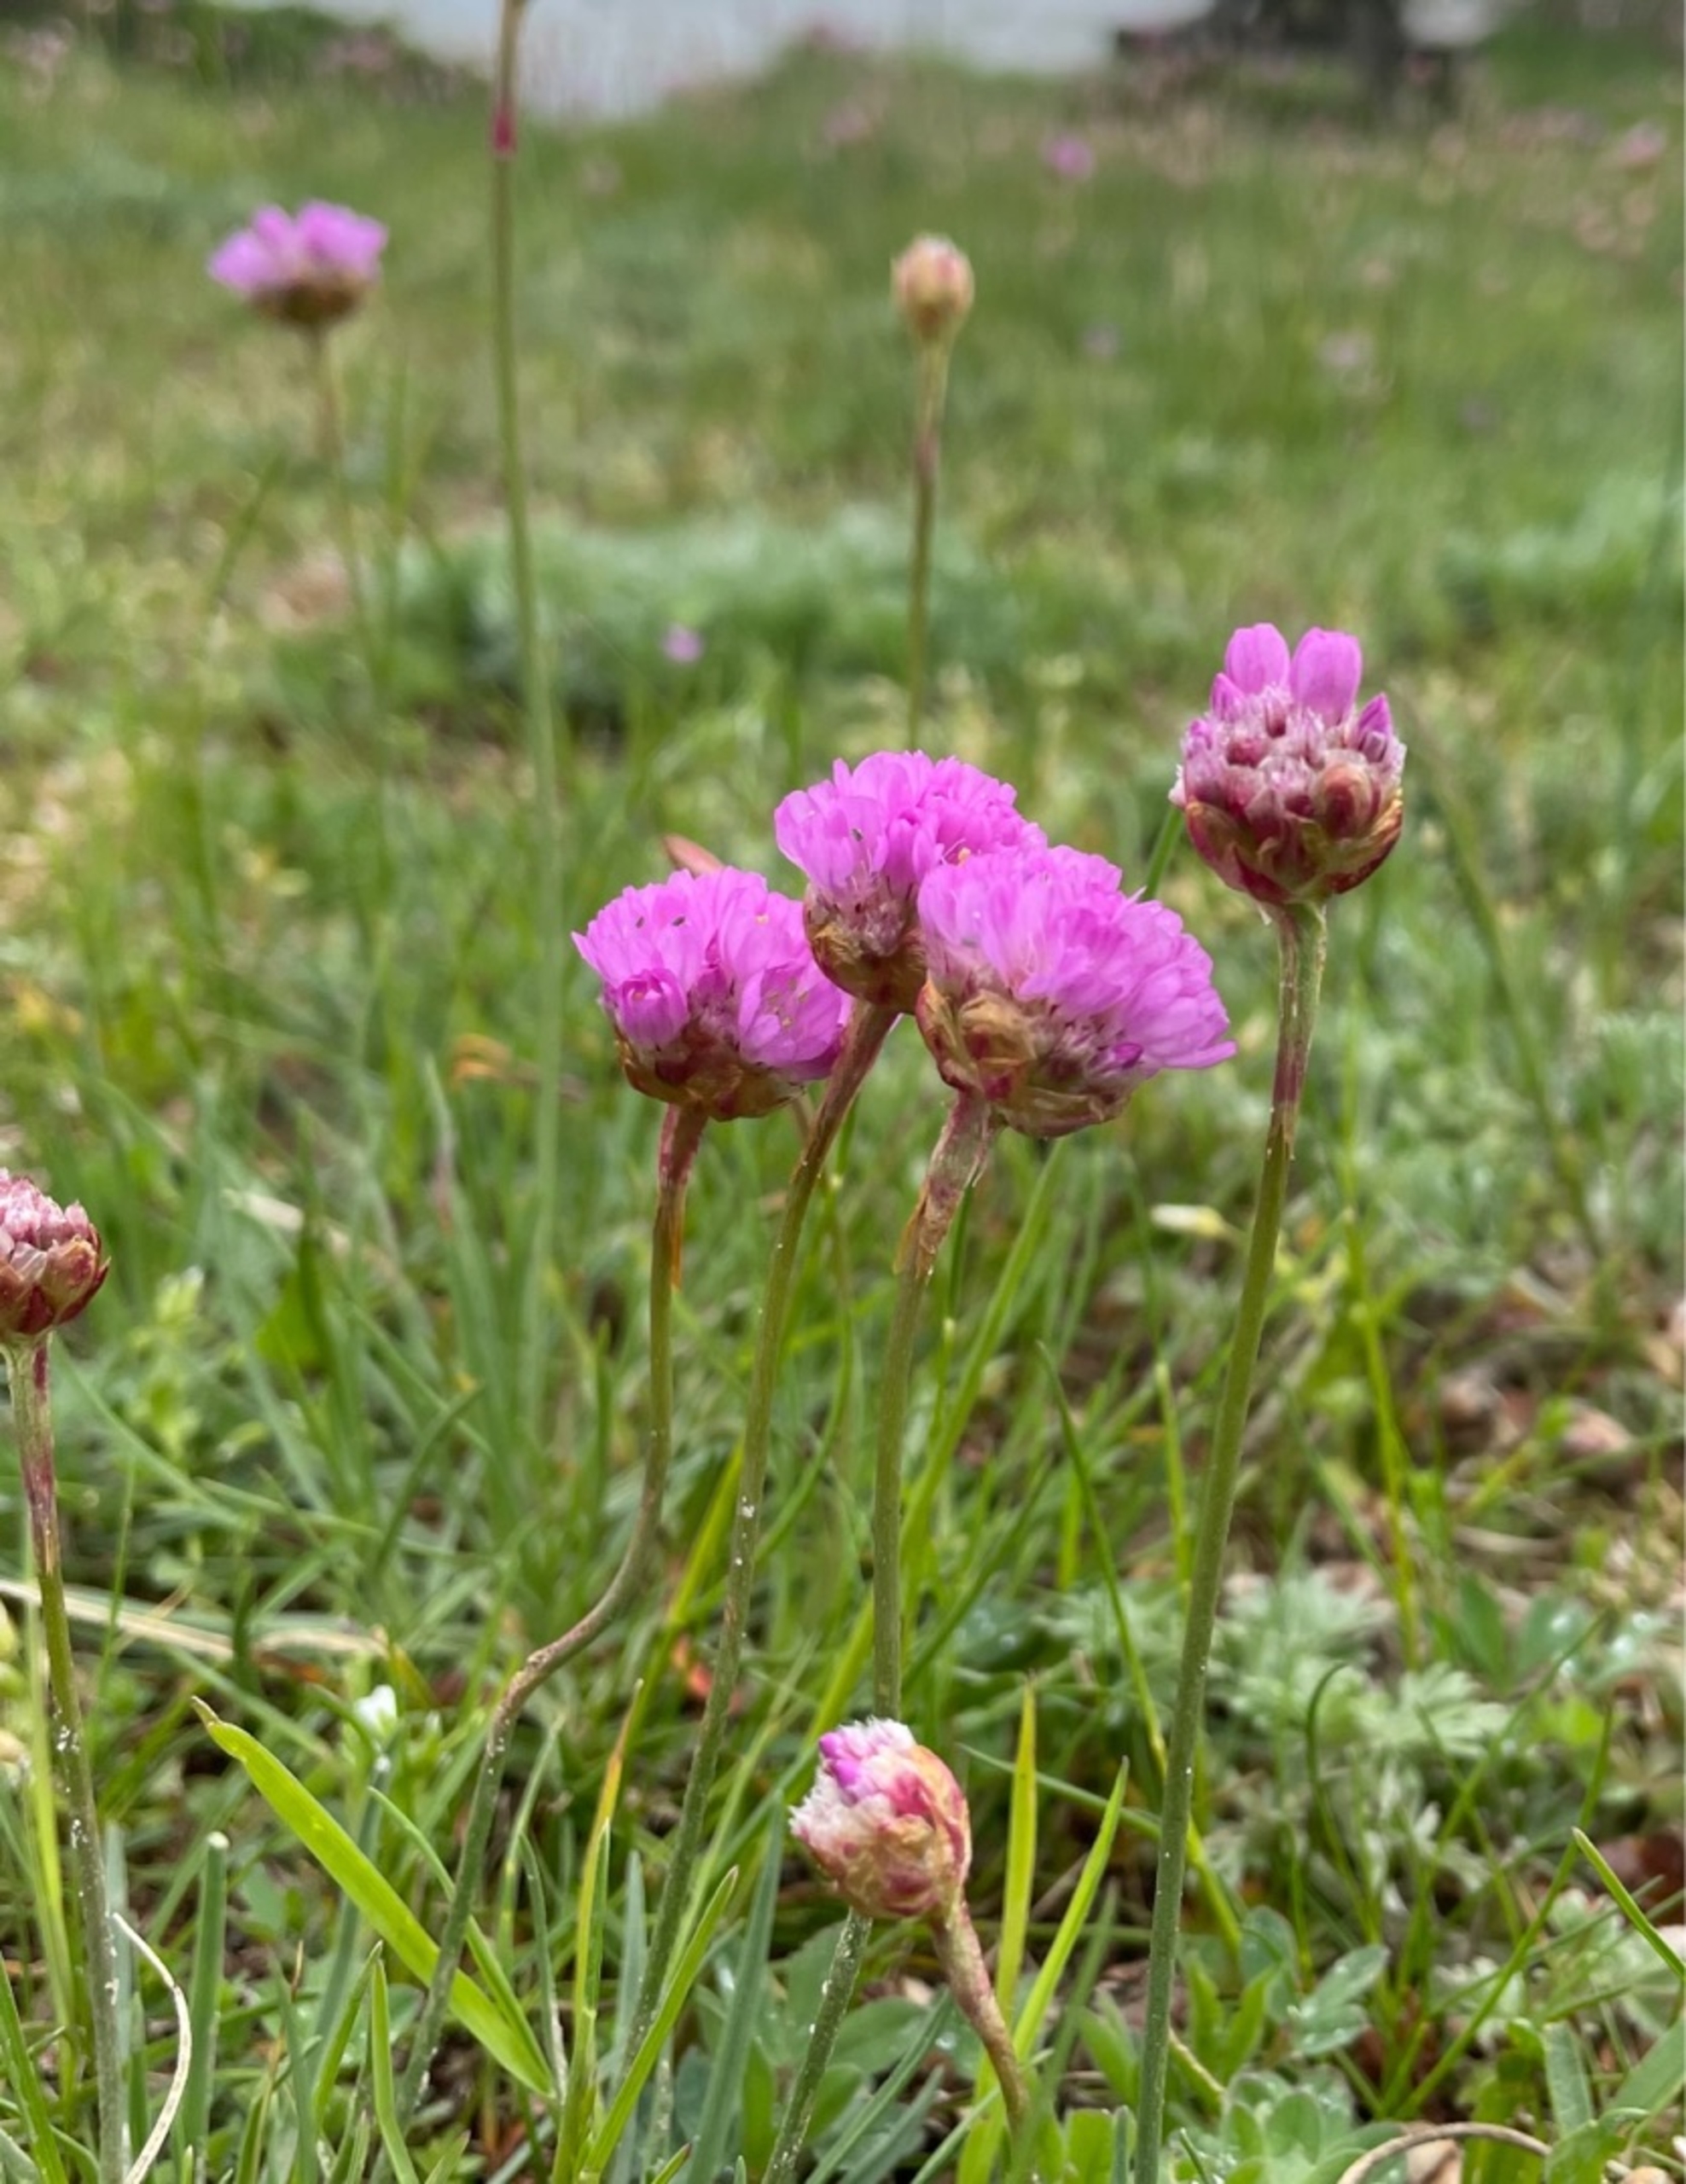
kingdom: Plantae
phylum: Tracheophyta
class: Magnoliopsida
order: Caryophyllales
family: Plumbaginaceae
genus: Armeria
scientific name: Armeria maritima
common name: Strand-engelskgræs
